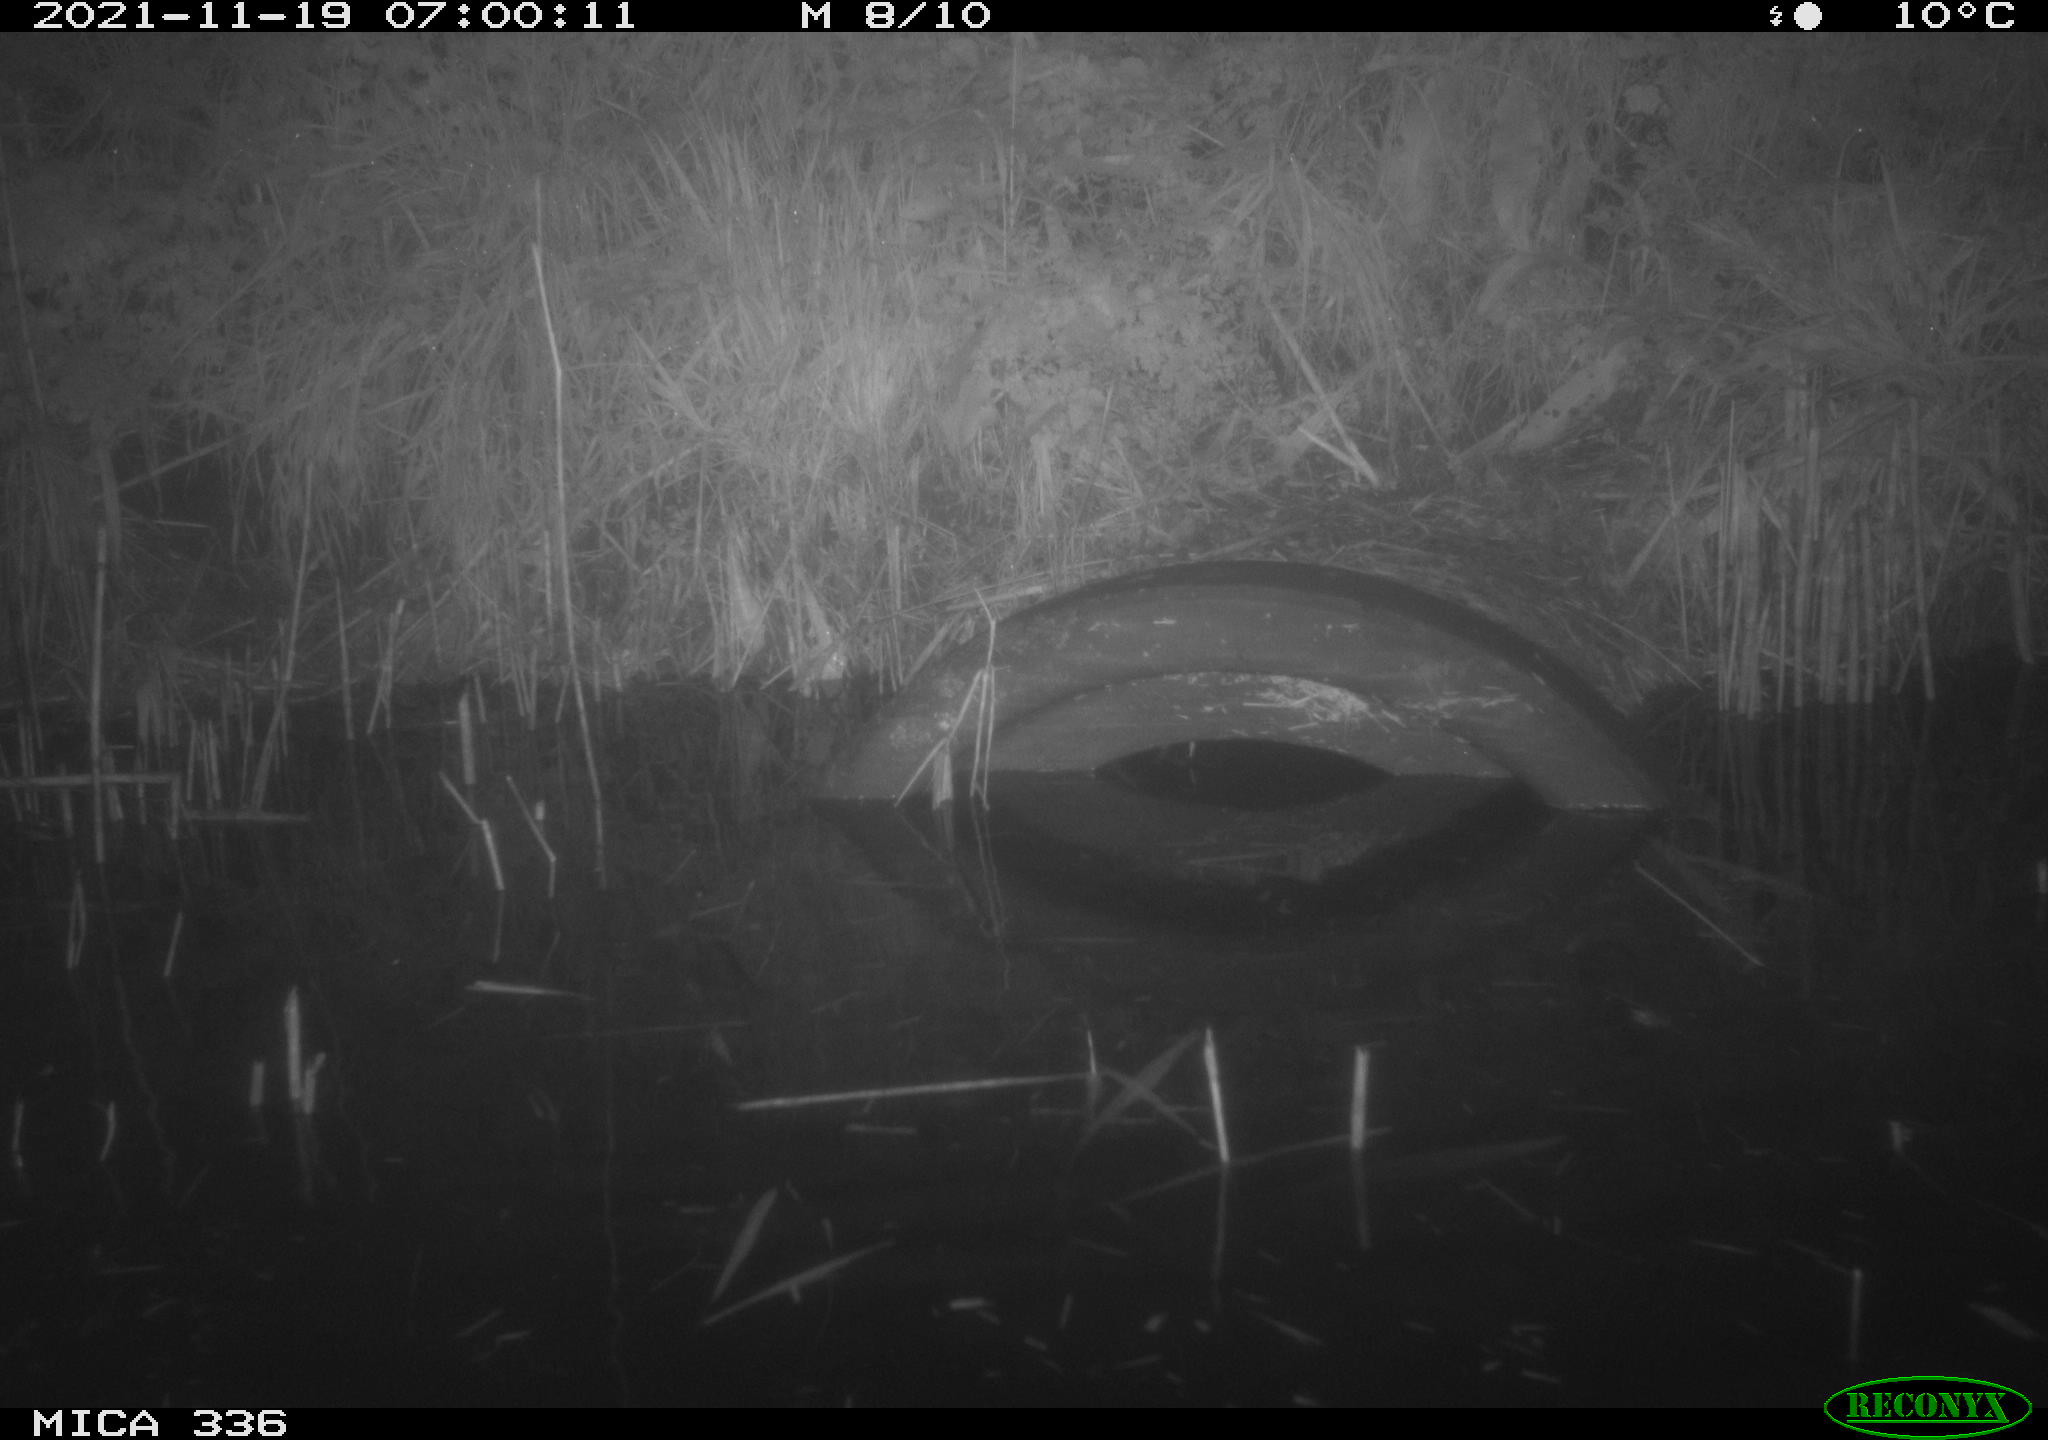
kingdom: Animalia
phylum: Chordata
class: Mammalia
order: Rodentia
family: Muridae
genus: Rattus
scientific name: Rattus norvegicus
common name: Brown rat
